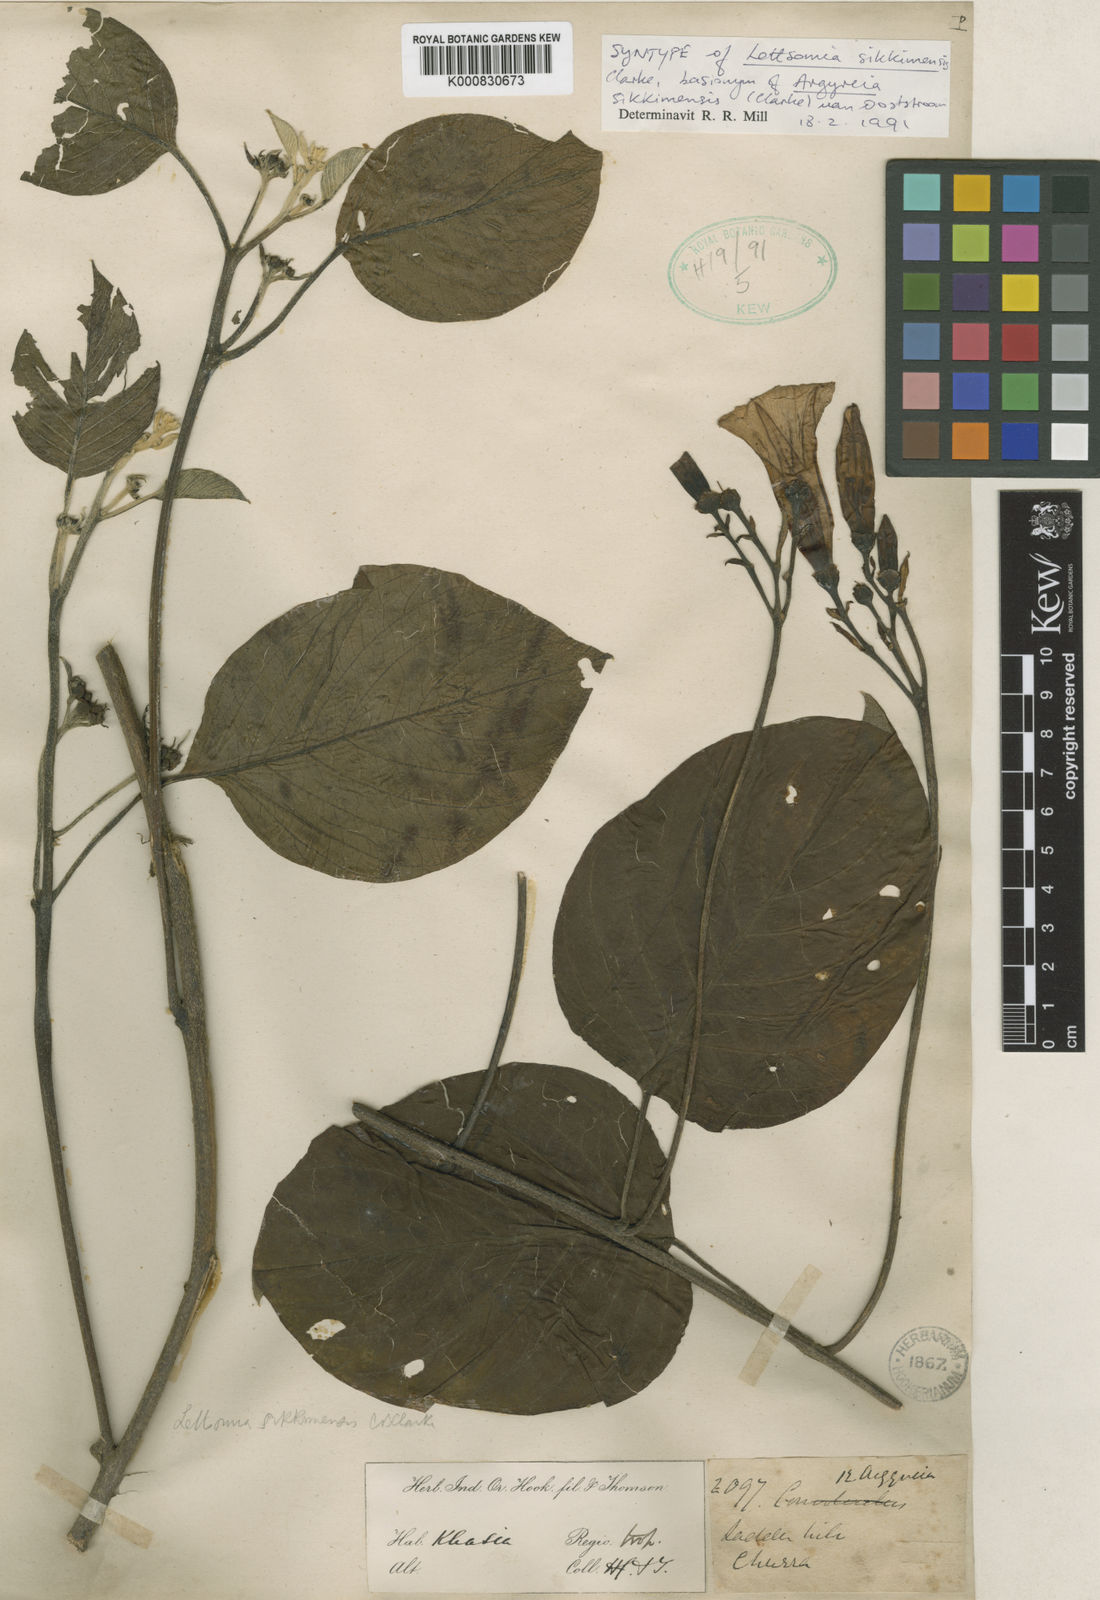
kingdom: Plantae
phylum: Tracheophyta
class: Magnoliopsida
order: Solanales
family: Convolvulaceae
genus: Argyreia
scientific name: Argyreia sikkimensis
